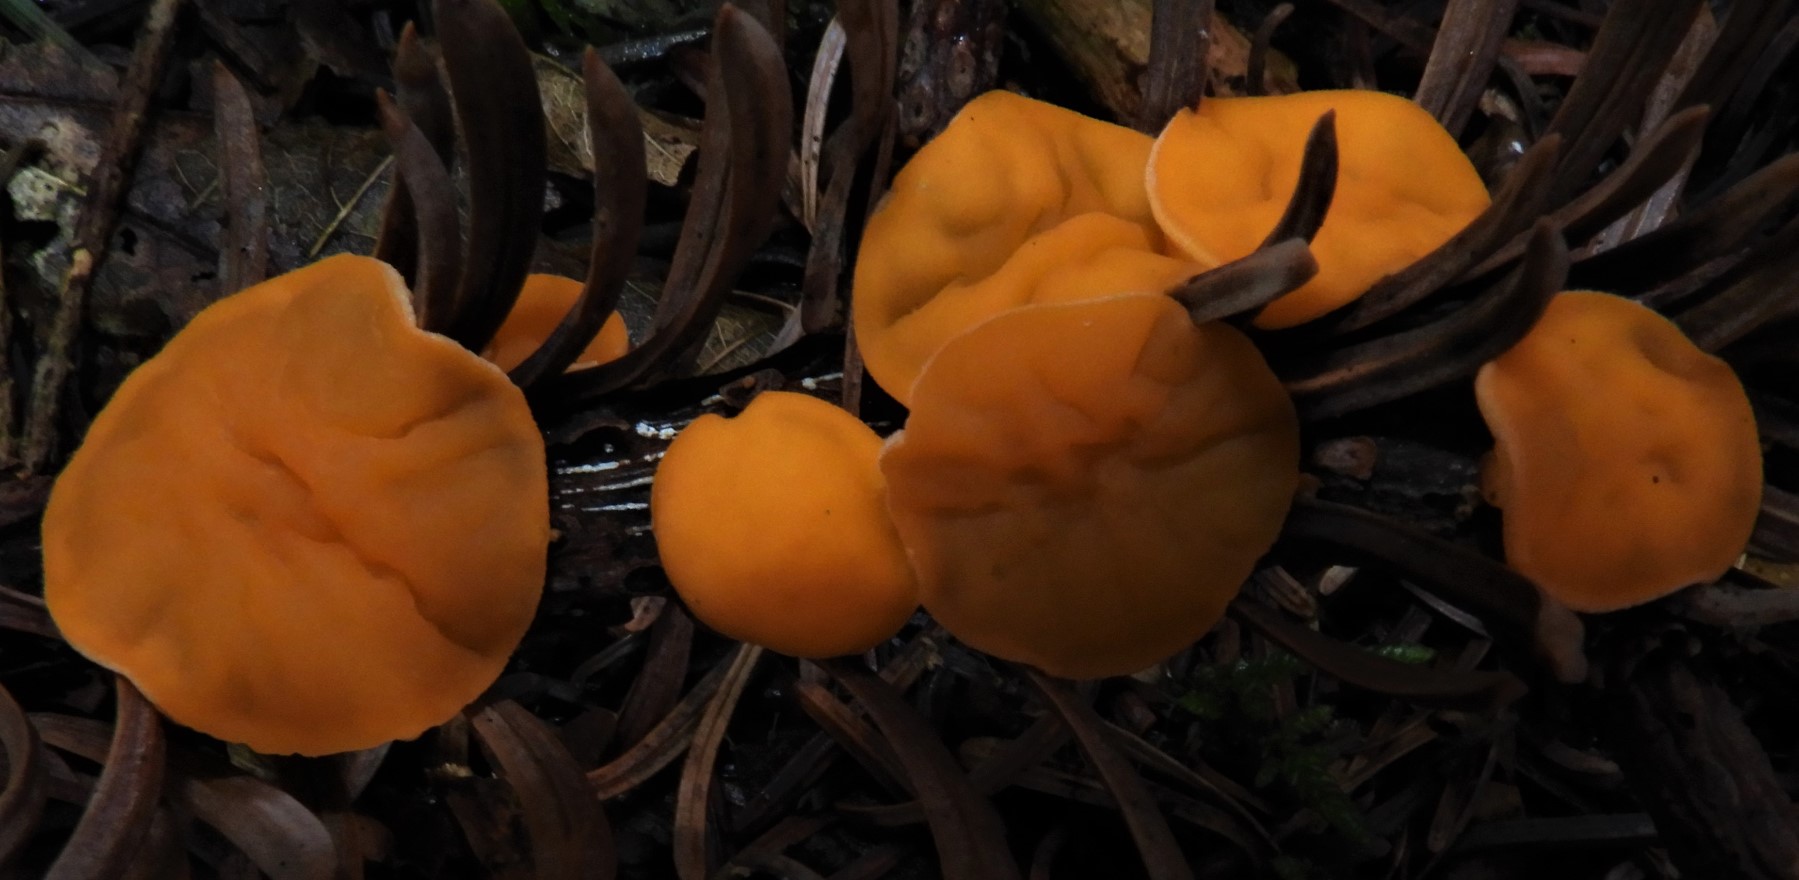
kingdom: Fungi
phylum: Ascomycota
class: Pezizomycetes
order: Pezizales
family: Sarcoscyphaceae
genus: Pithya
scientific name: Pithya vulgaris
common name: stor dukatbæger
